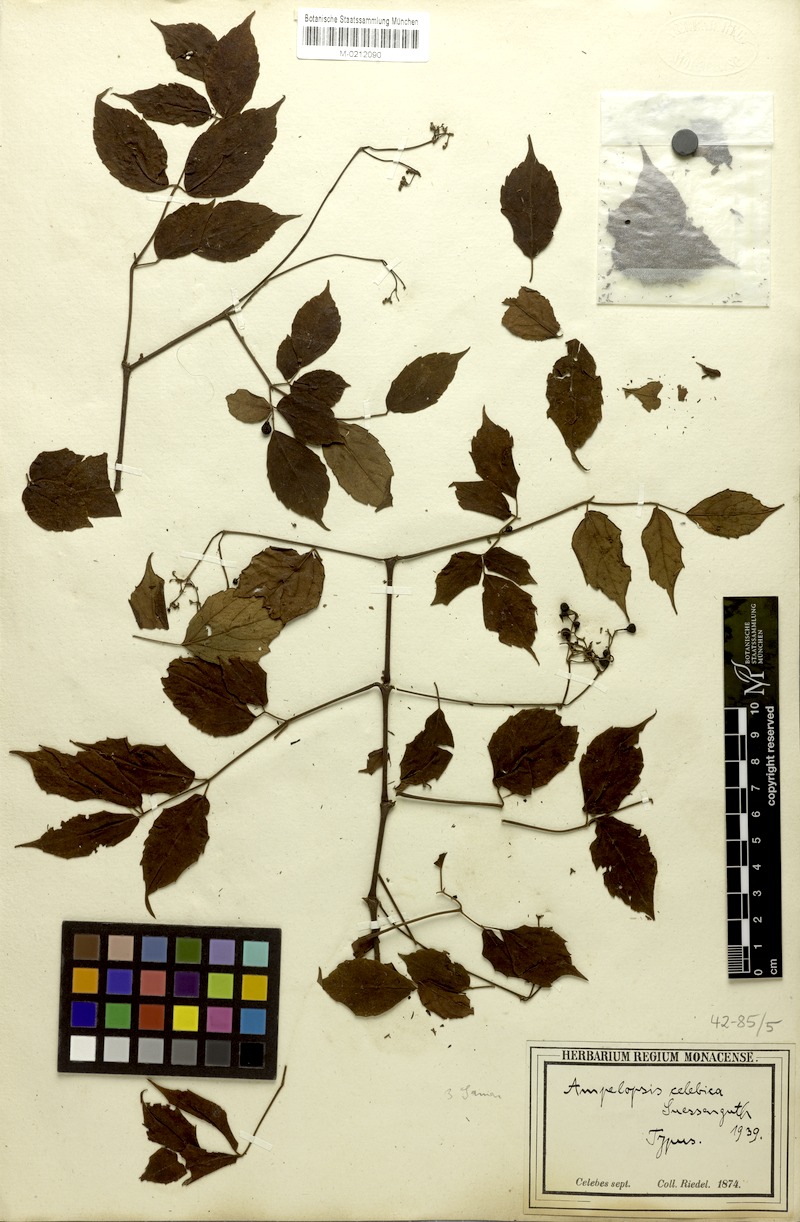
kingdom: Plantae
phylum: Tracheophyta
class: Magnoliopsida
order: Vitales
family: Vitaceae
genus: Nekemias
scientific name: Nekemias celebica
